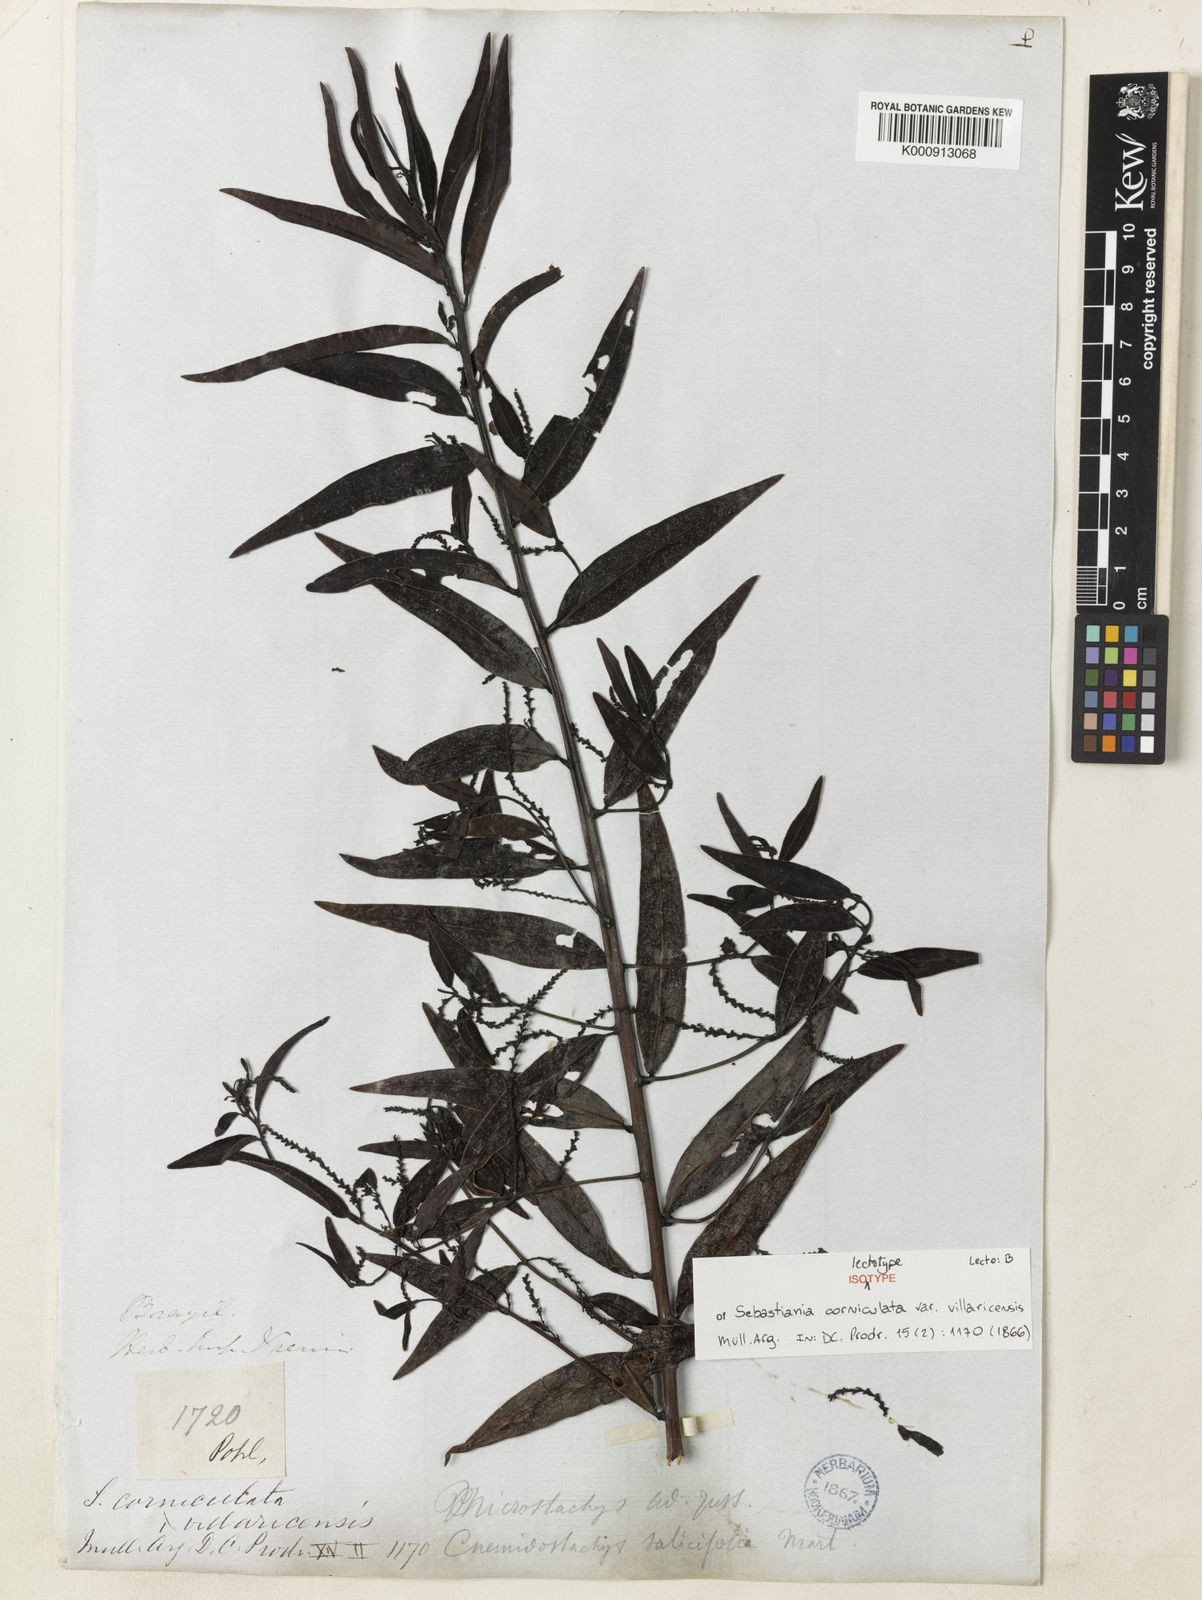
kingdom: Plantae
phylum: Tracheophyta
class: Magnoliopsida
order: Malpighiales
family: Euphorbiaceae
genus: Microstachys
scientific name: Microstachys corniculata
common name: Hato tejas
